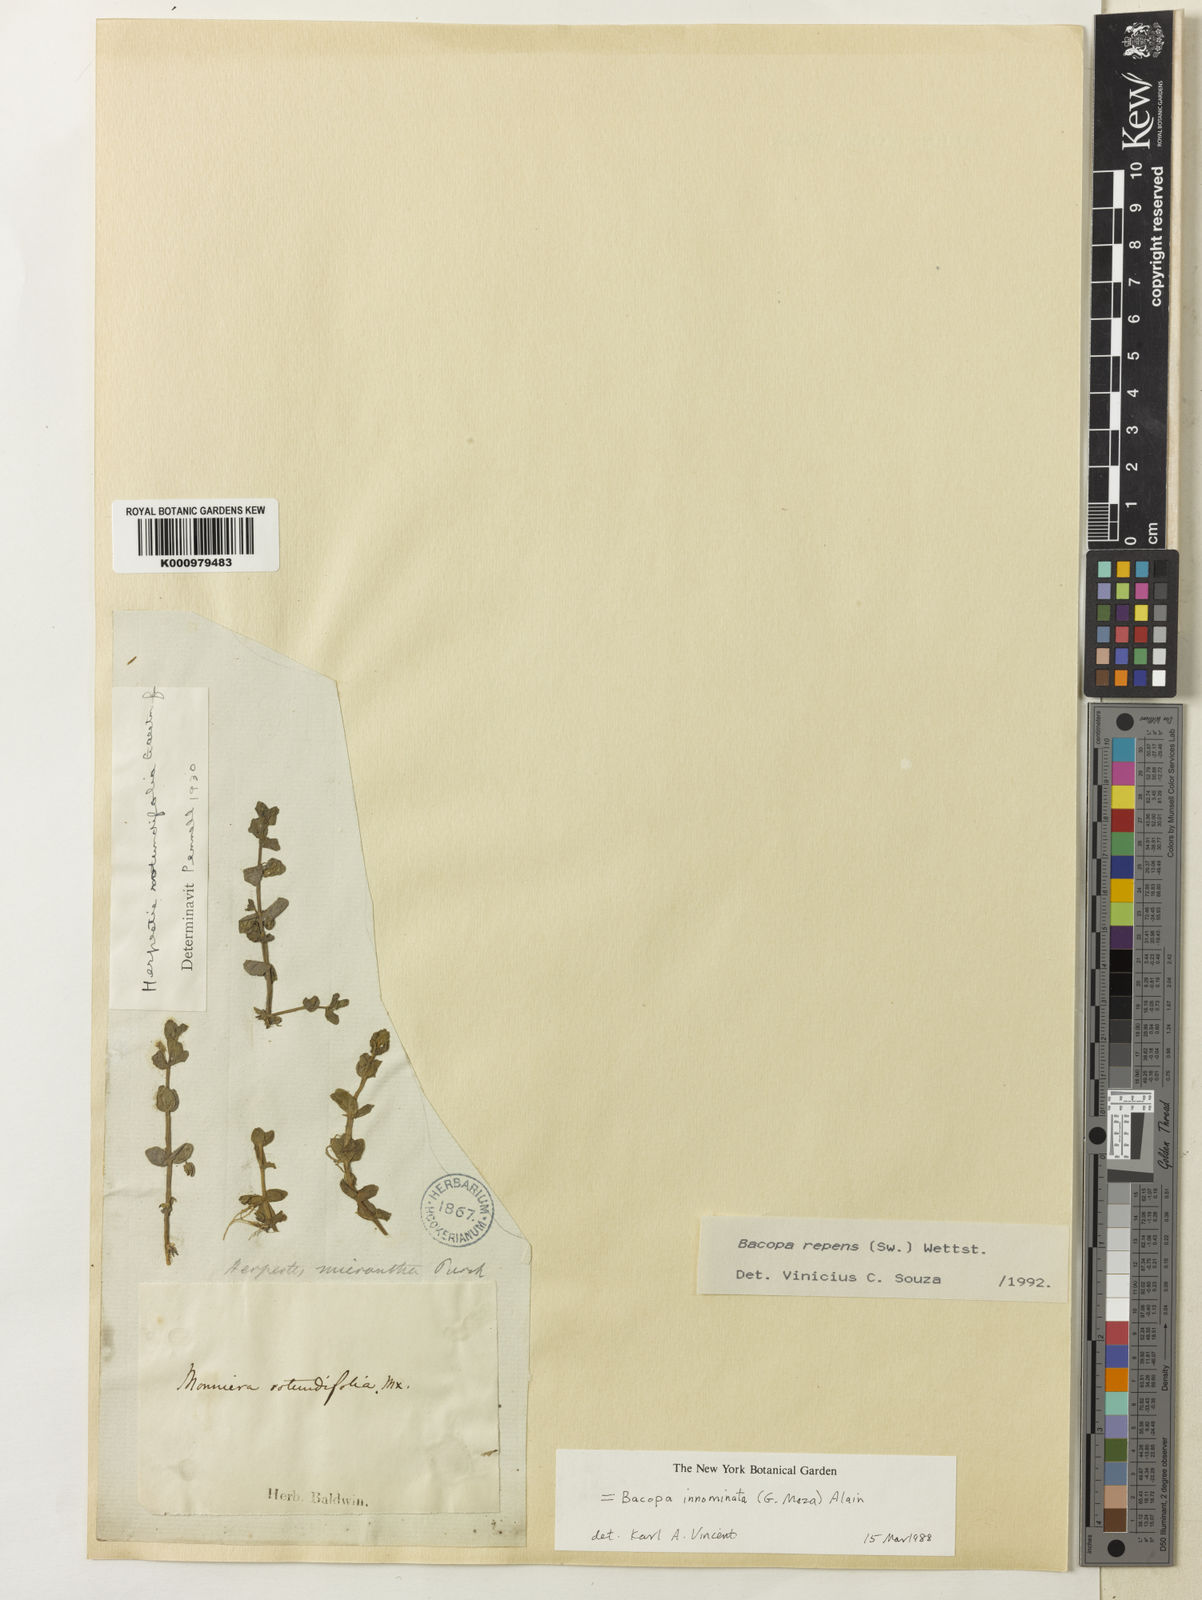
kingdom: Plantae
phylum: Tracheophyta
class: Magnoliopsida
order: Lamiales
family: Plantaginaceae
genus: Bacopa
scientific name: Bacopa repens
